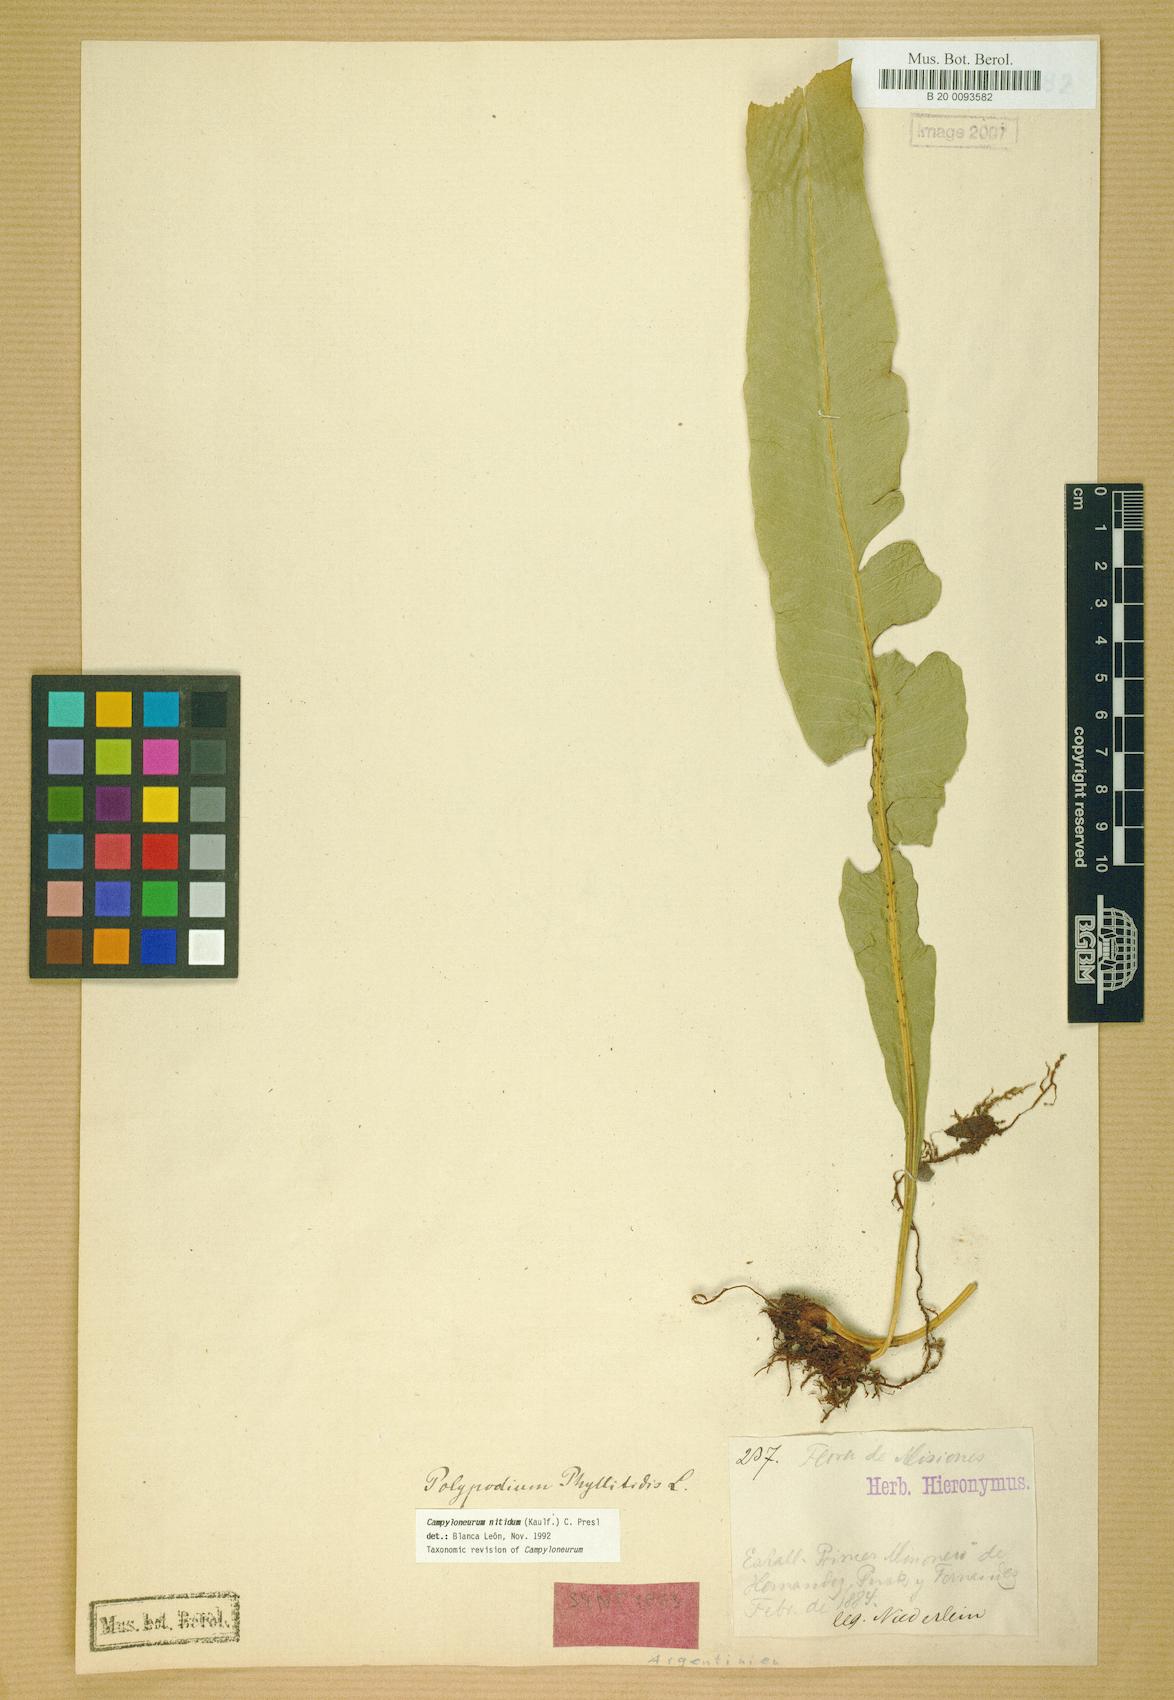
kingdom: Plantae
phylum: Tracheophyta
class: Polypodiopsida
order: Polypodiales
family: Polypodiaceae
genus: Campyloneurum
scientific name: Campyloneurum nitidum
